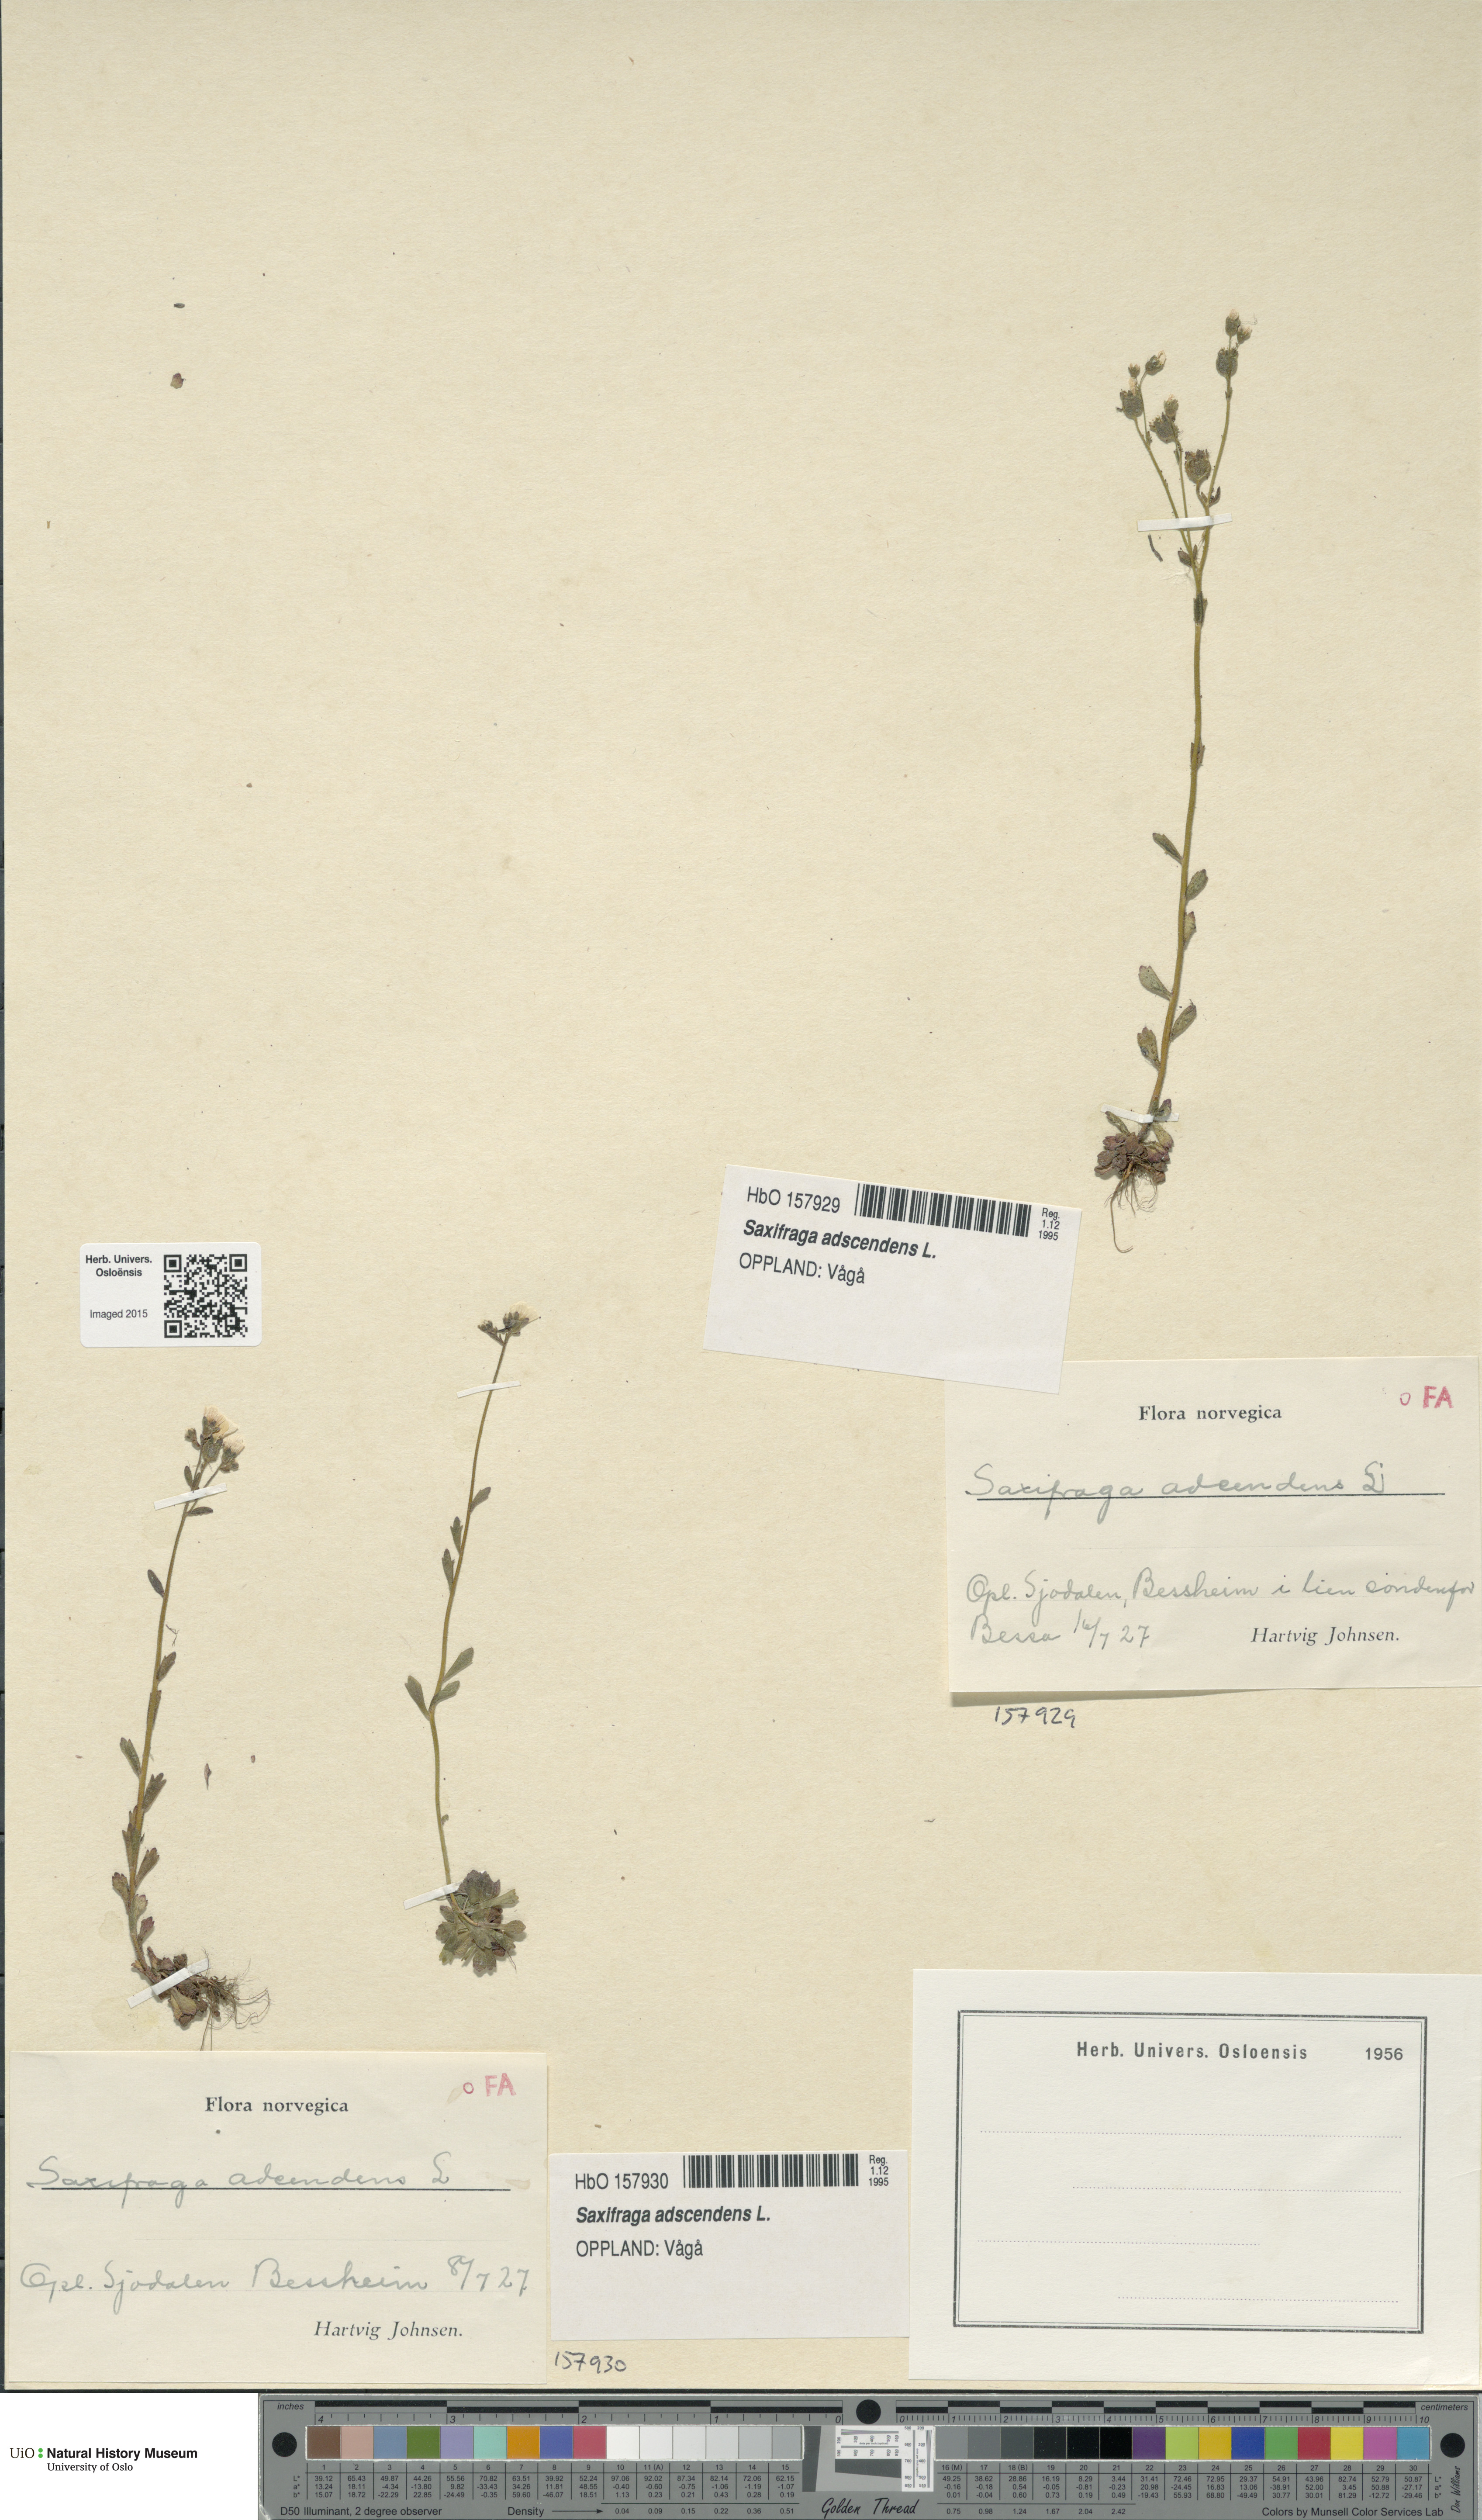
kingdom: Plantae
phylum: Tracheophyta
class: Magnoliopsida
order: Saxifragales
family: Saxifragaceae
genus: Saxifraga
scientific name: Saxifraga adscendens
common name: Ascending saxifrage
